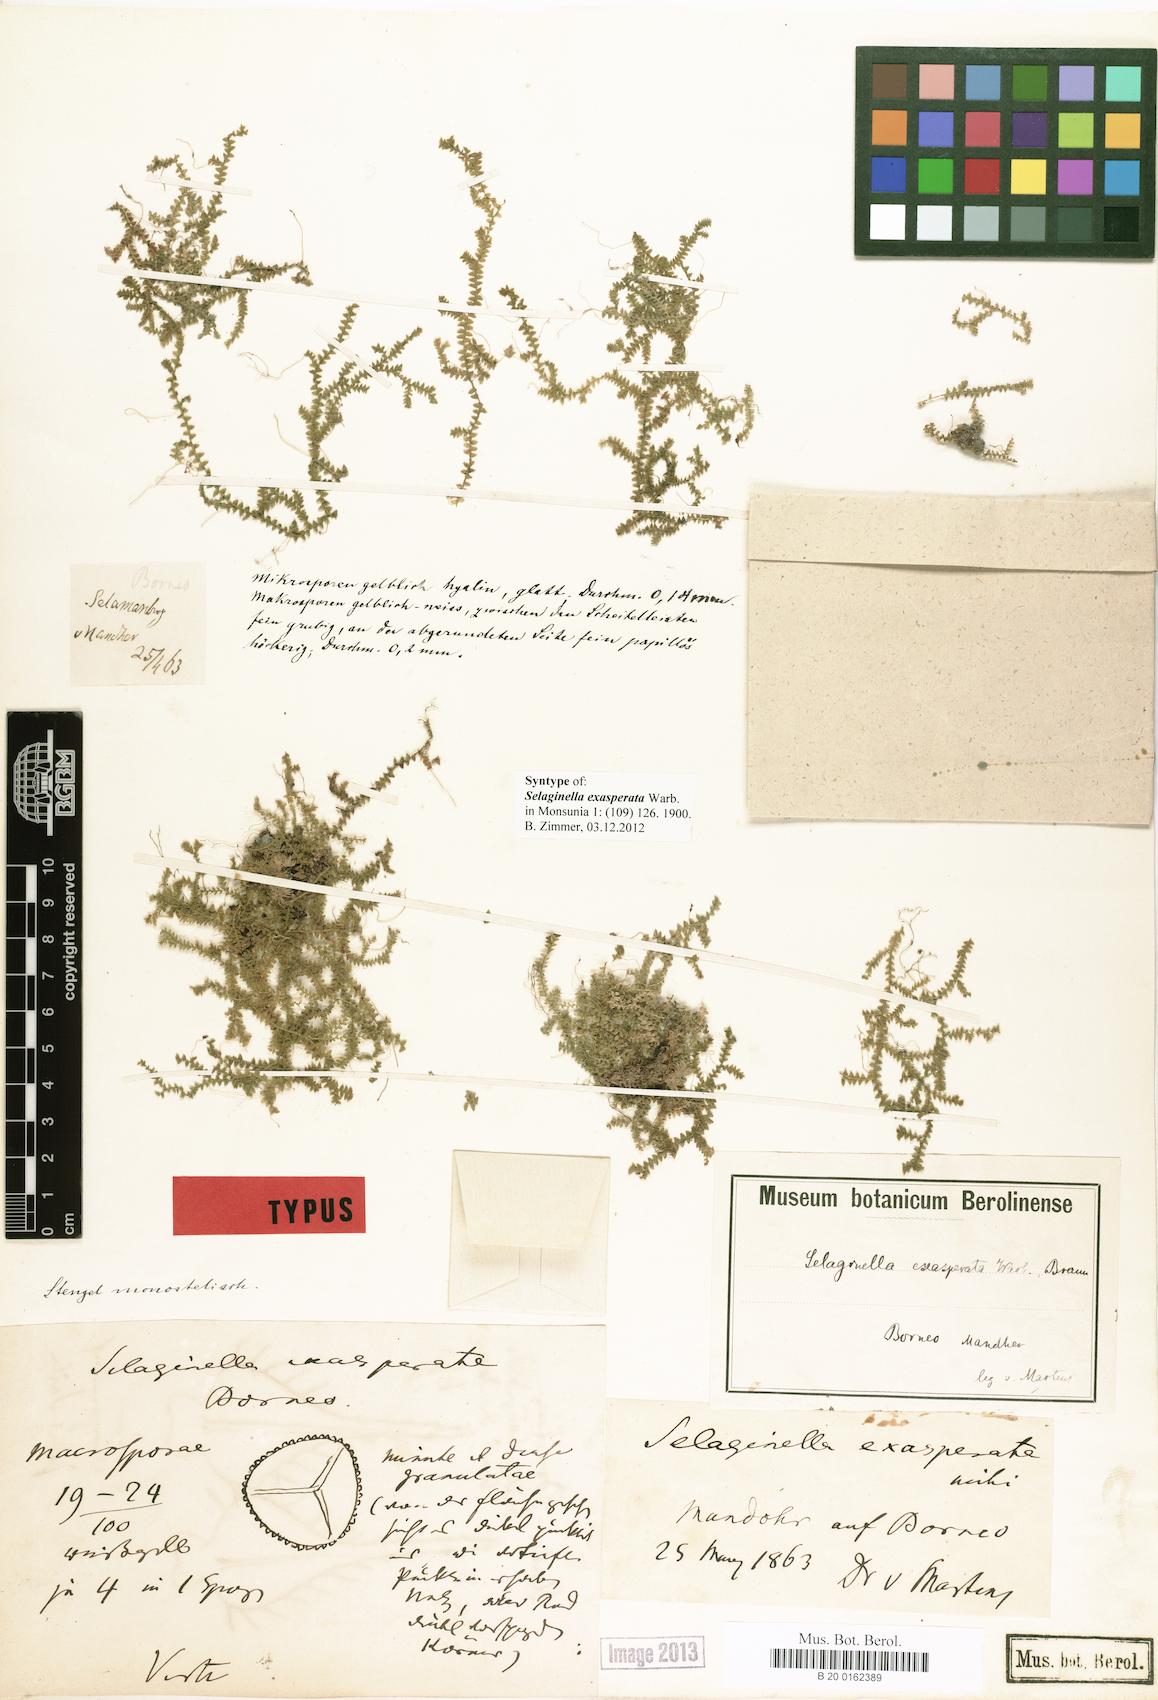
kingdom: Plantae
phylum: Tracheophyta
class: Lycopodiopsida
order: Selaginellales
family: Selaginellaceae
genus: Selaginella
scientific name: Selaginella exasperata
